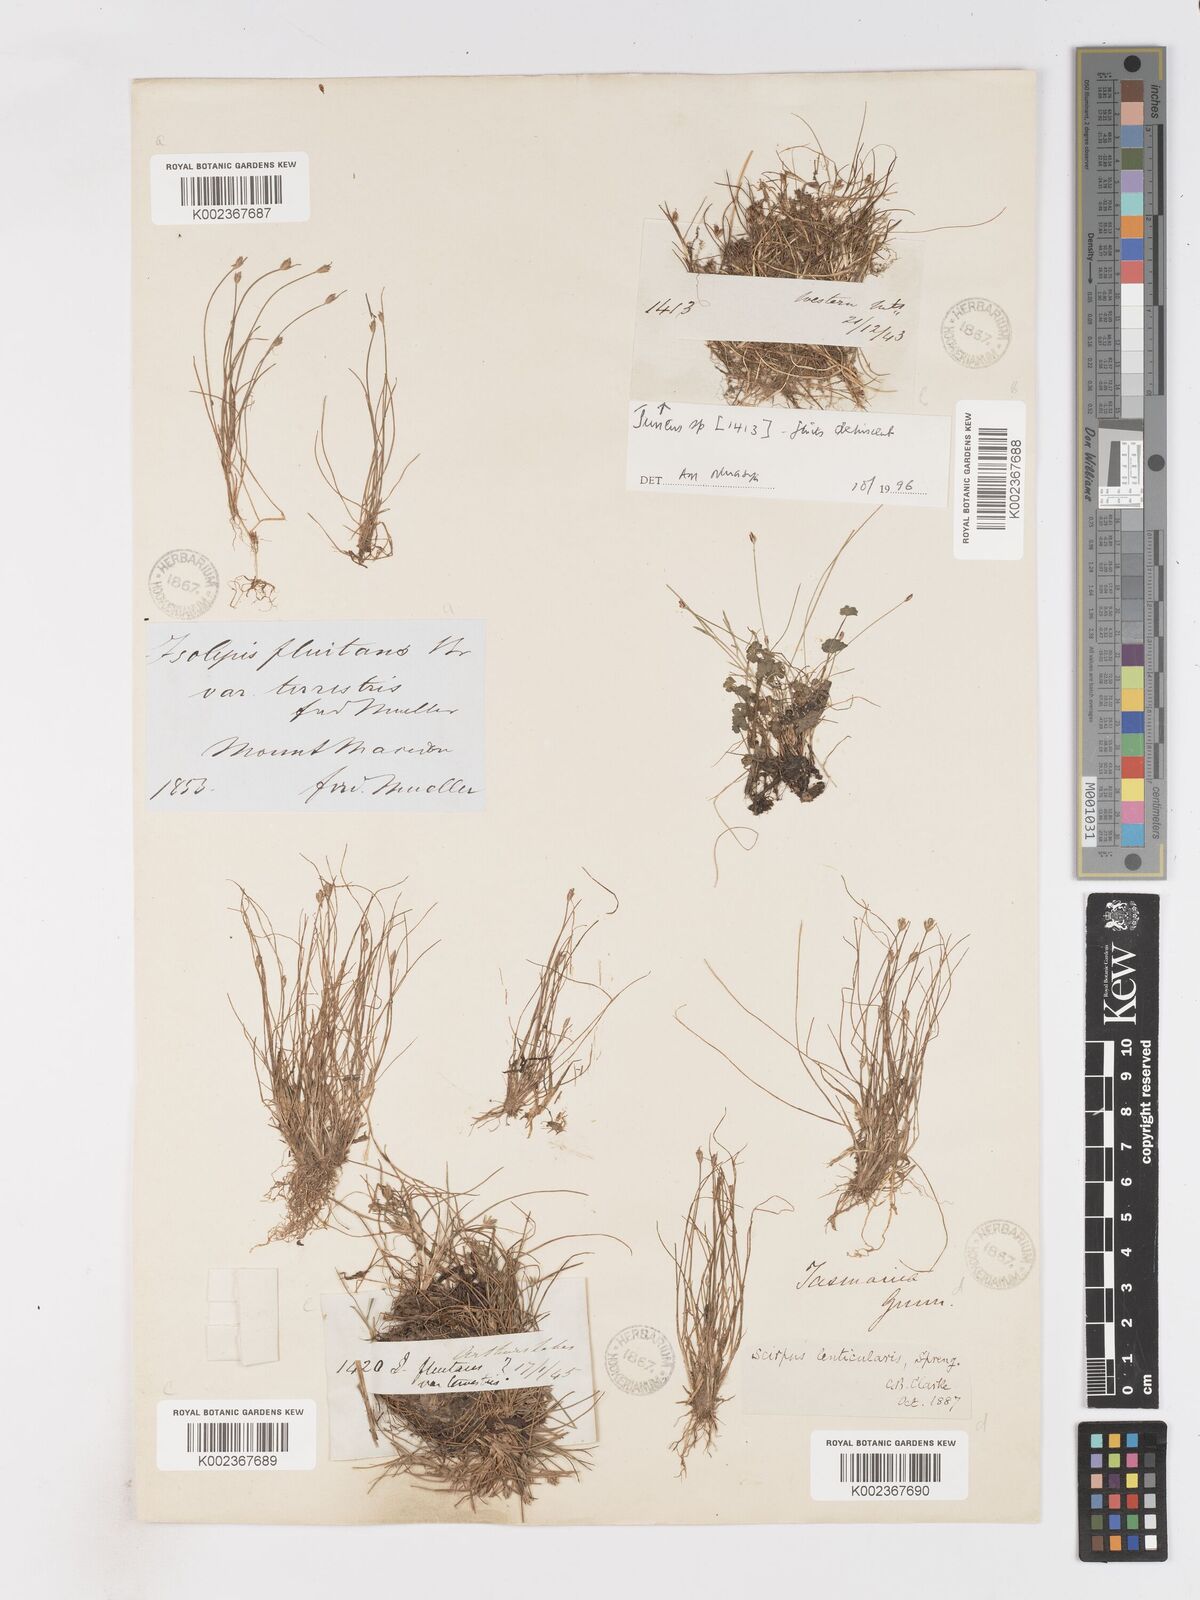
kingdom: Plantae
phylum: Tracheophyta
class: Liliopsida
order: Poales
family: Cyperaceae
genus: Isolepis
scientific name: Isolepis fluitans
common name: Floating club-rush
